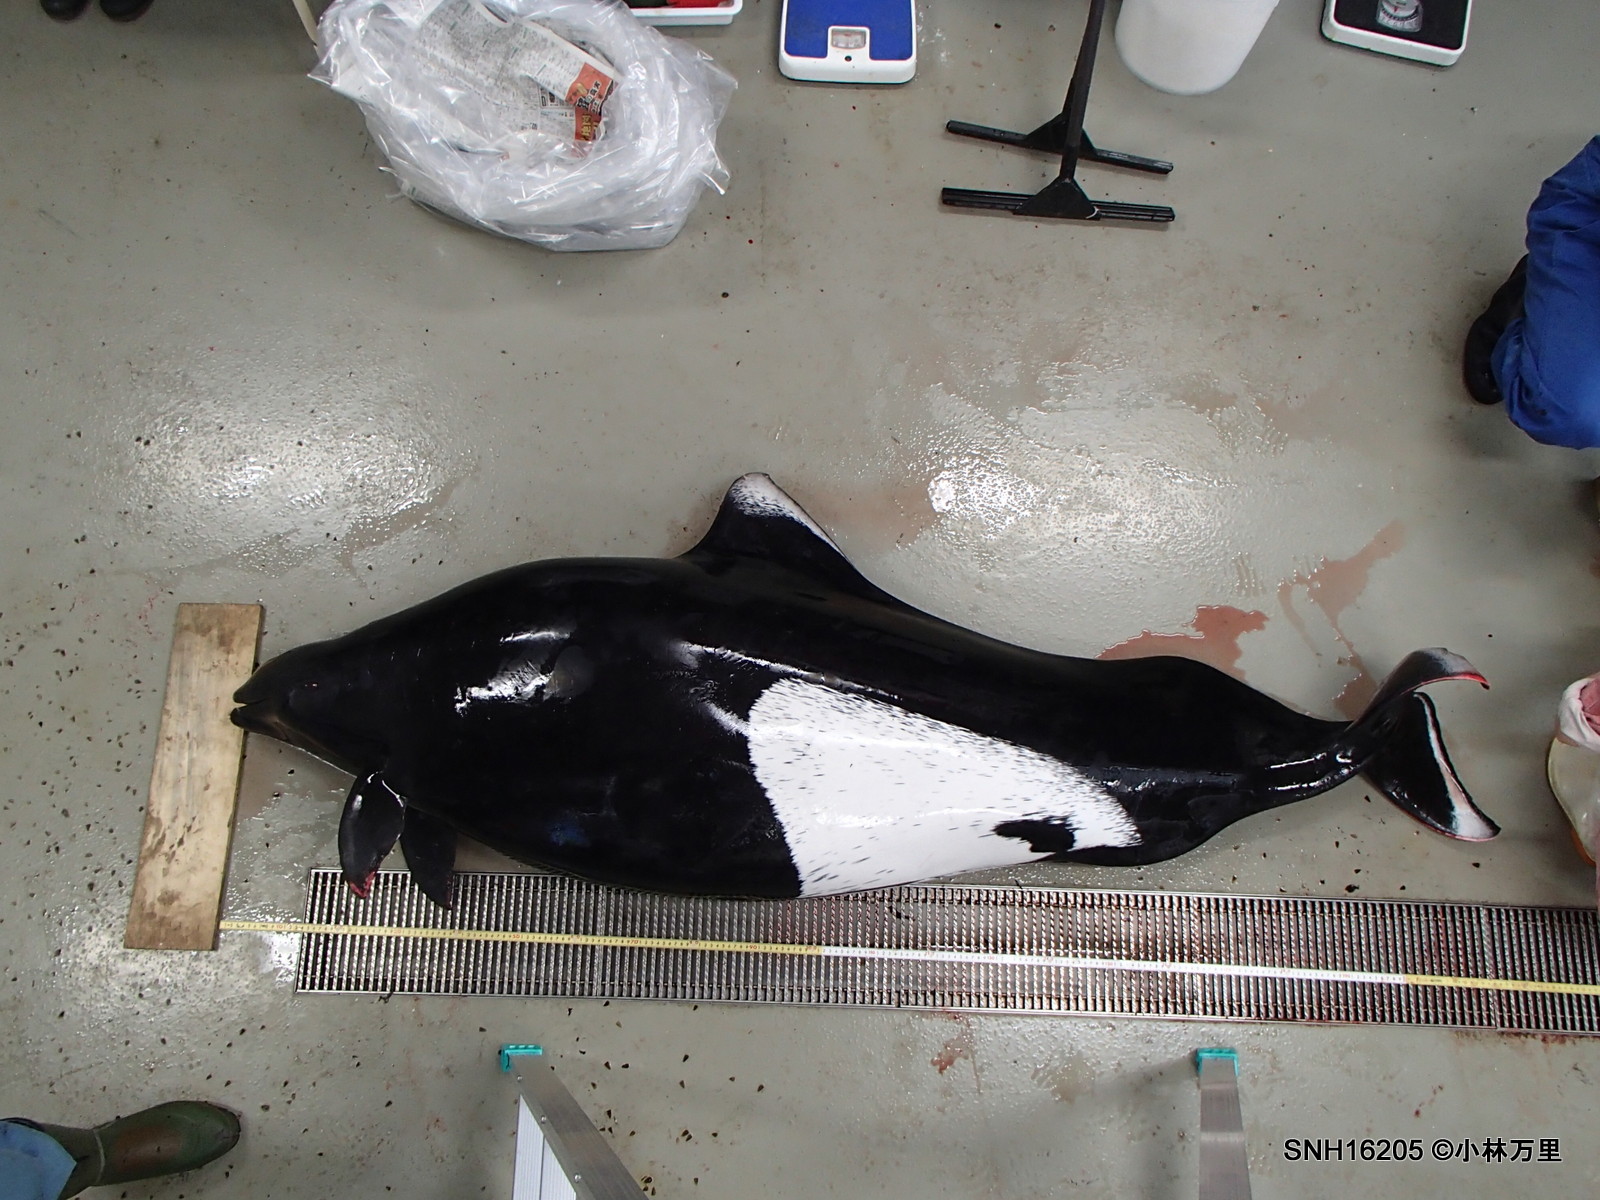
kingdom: Animalia
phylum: Chordata
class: Mammalia
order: Cetacea
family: Phocoenidae
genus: Phocoenoides
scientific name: Phocoenoides dalli
